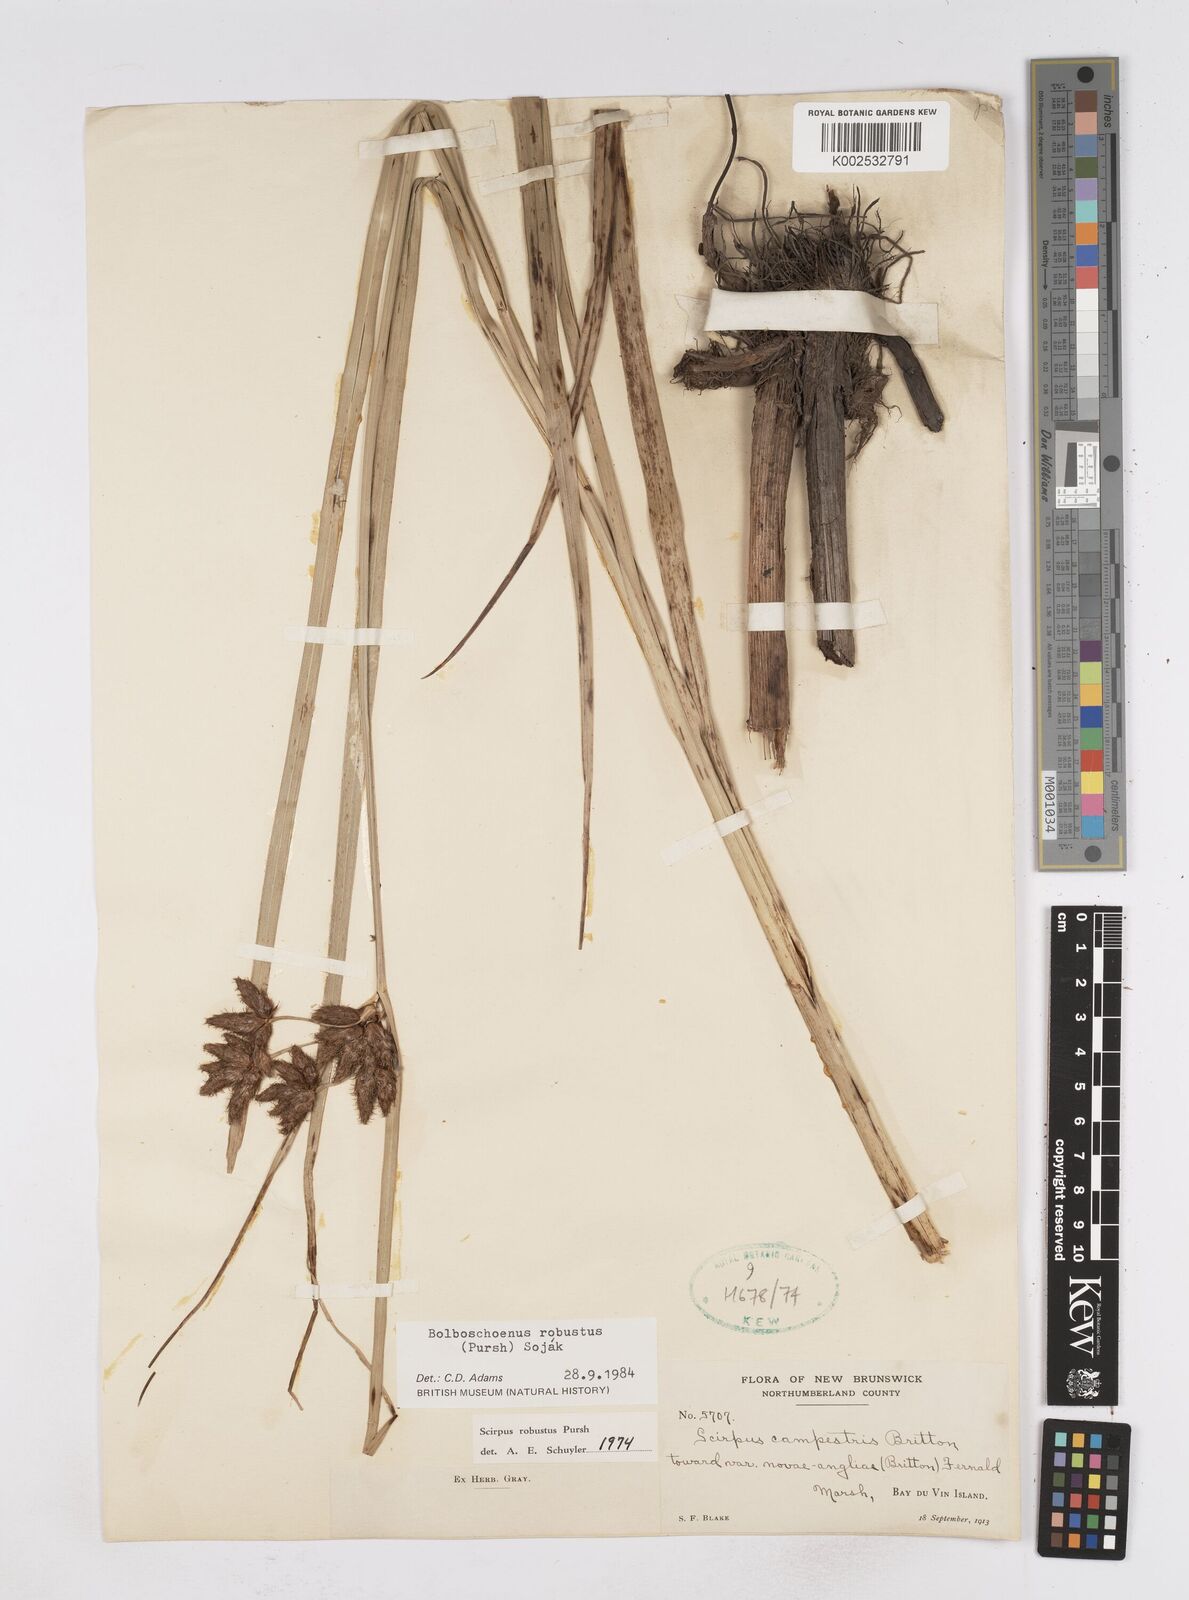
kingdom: Plantae
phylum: Tracheophyta
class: Liliopsida
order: Poales
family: Cyperaceae
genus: Bolboschoenus
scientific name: Bolboschoenus robustus
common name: Seacoast bulrush
